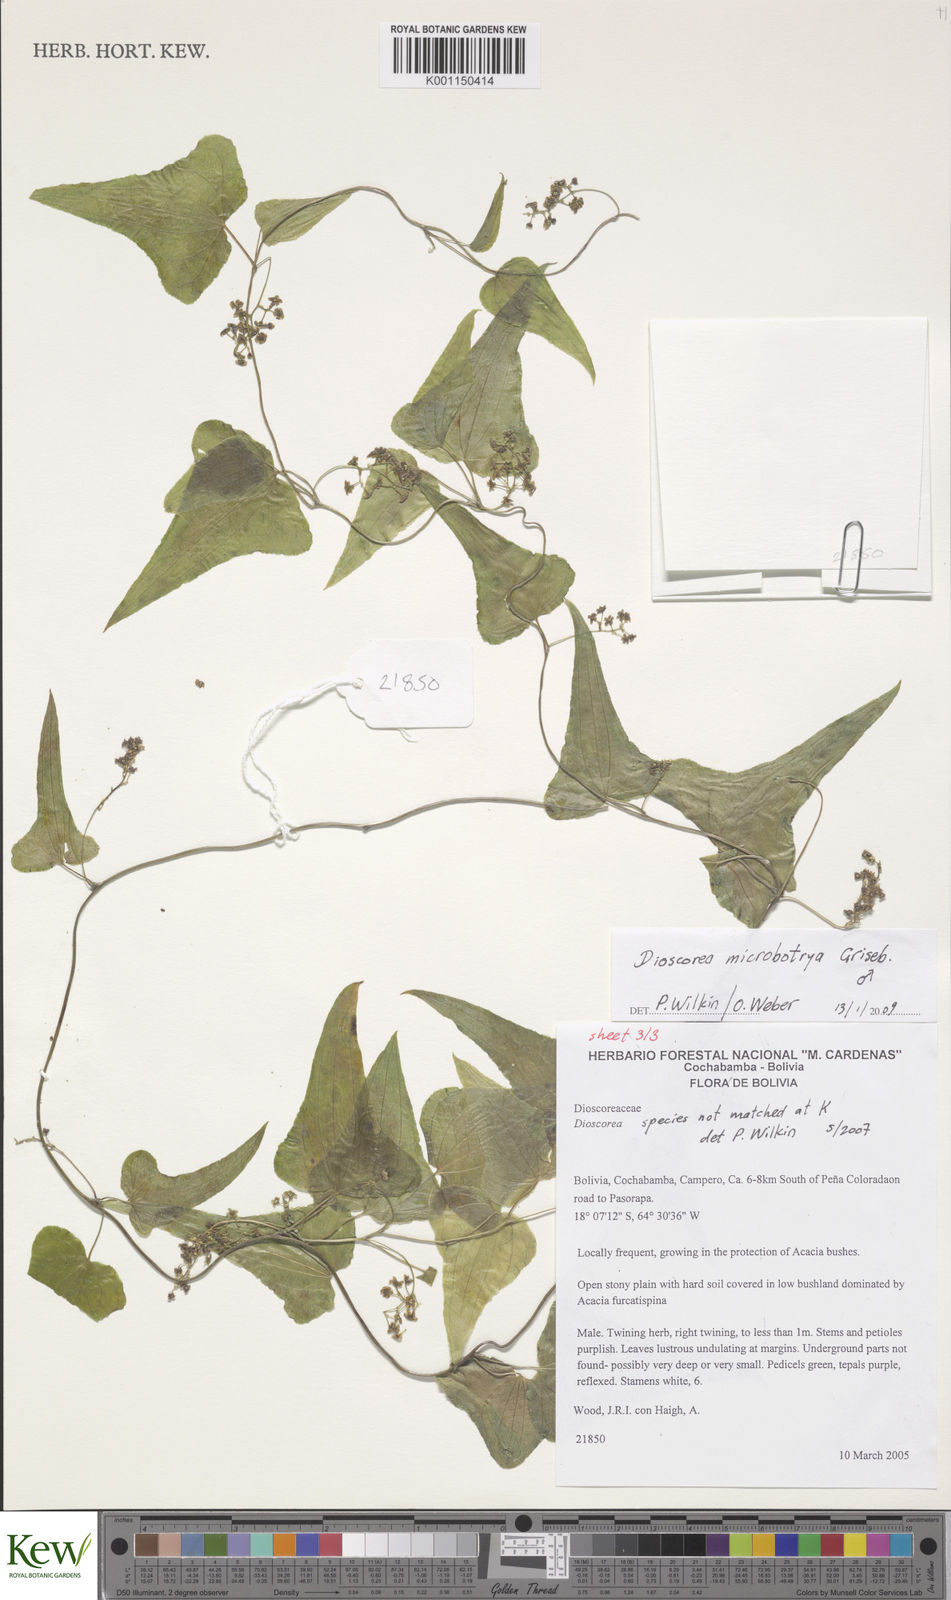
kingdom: Plantae
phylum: Tracheophyta
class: Liliopsida
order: Dioscoreales
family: Dioscoreaceae
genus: Dioscorea
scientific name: Dioscorea microbotrya
